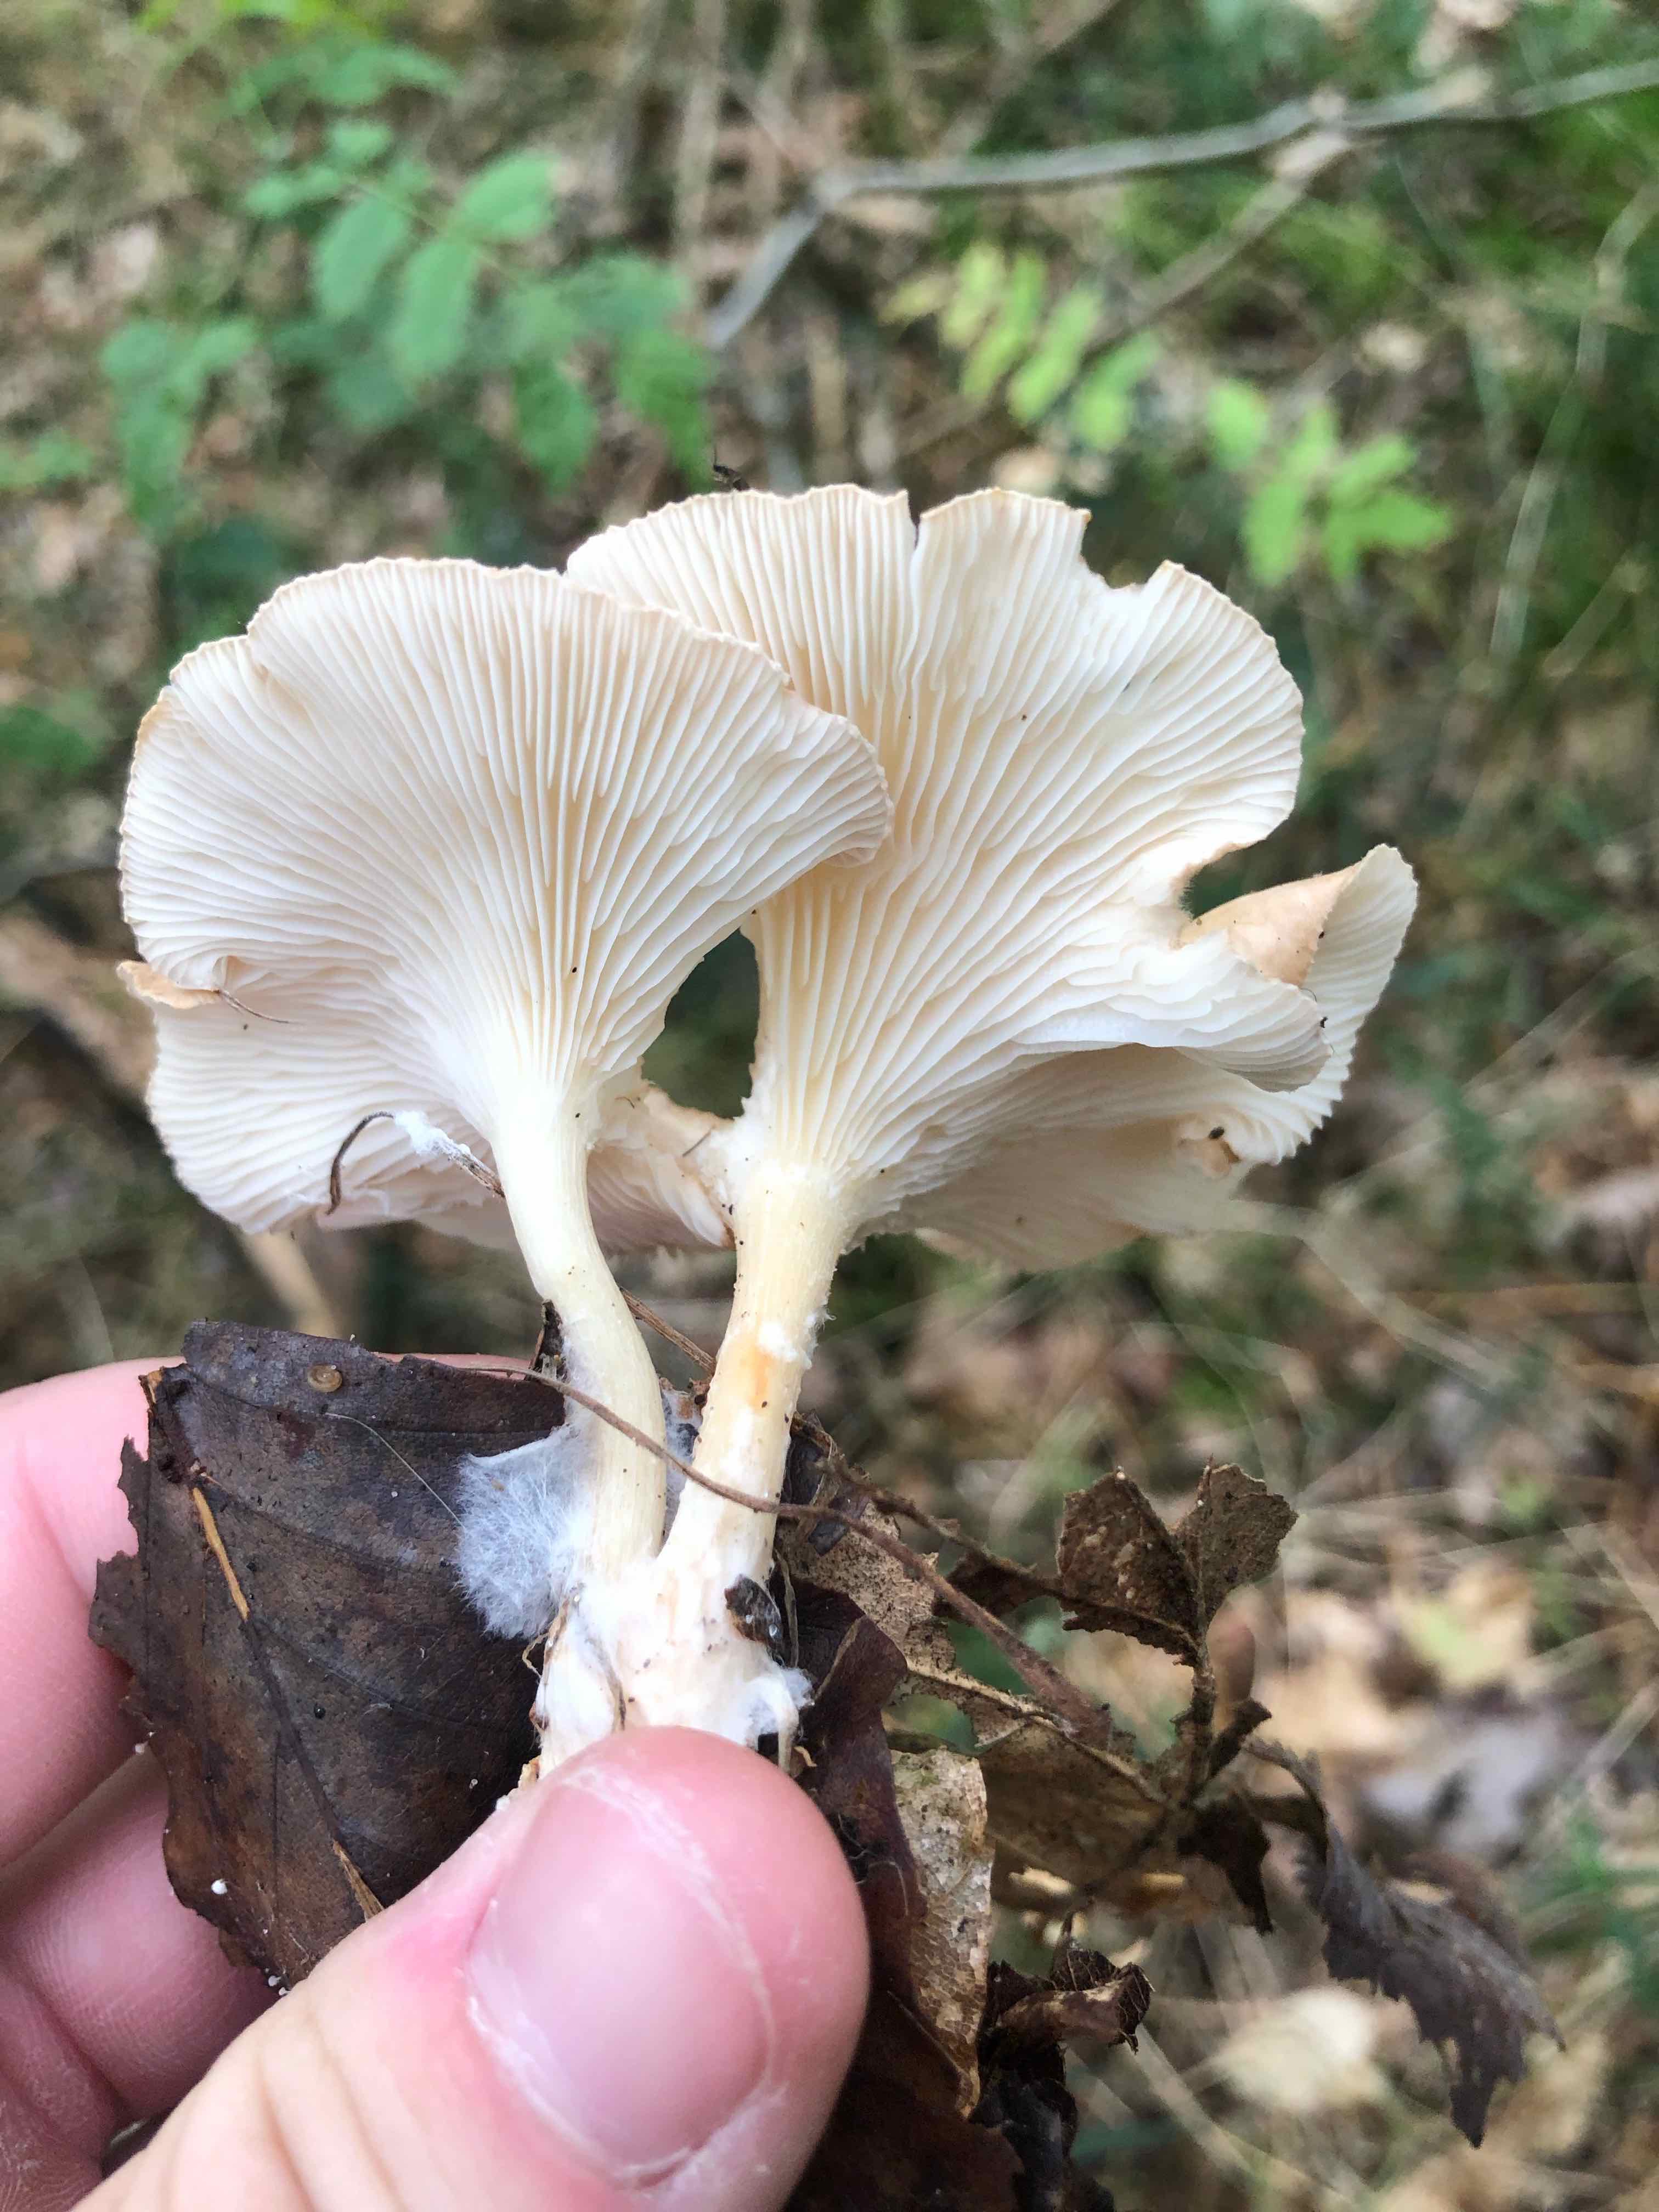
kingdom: Fungi
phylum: Basidiomycota
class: Agaricomycetes
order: Agaricales
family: Tricholomataceae
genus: Infundibulicybe
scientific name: Infundibulicybe gibba
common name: almindelig tragthat
